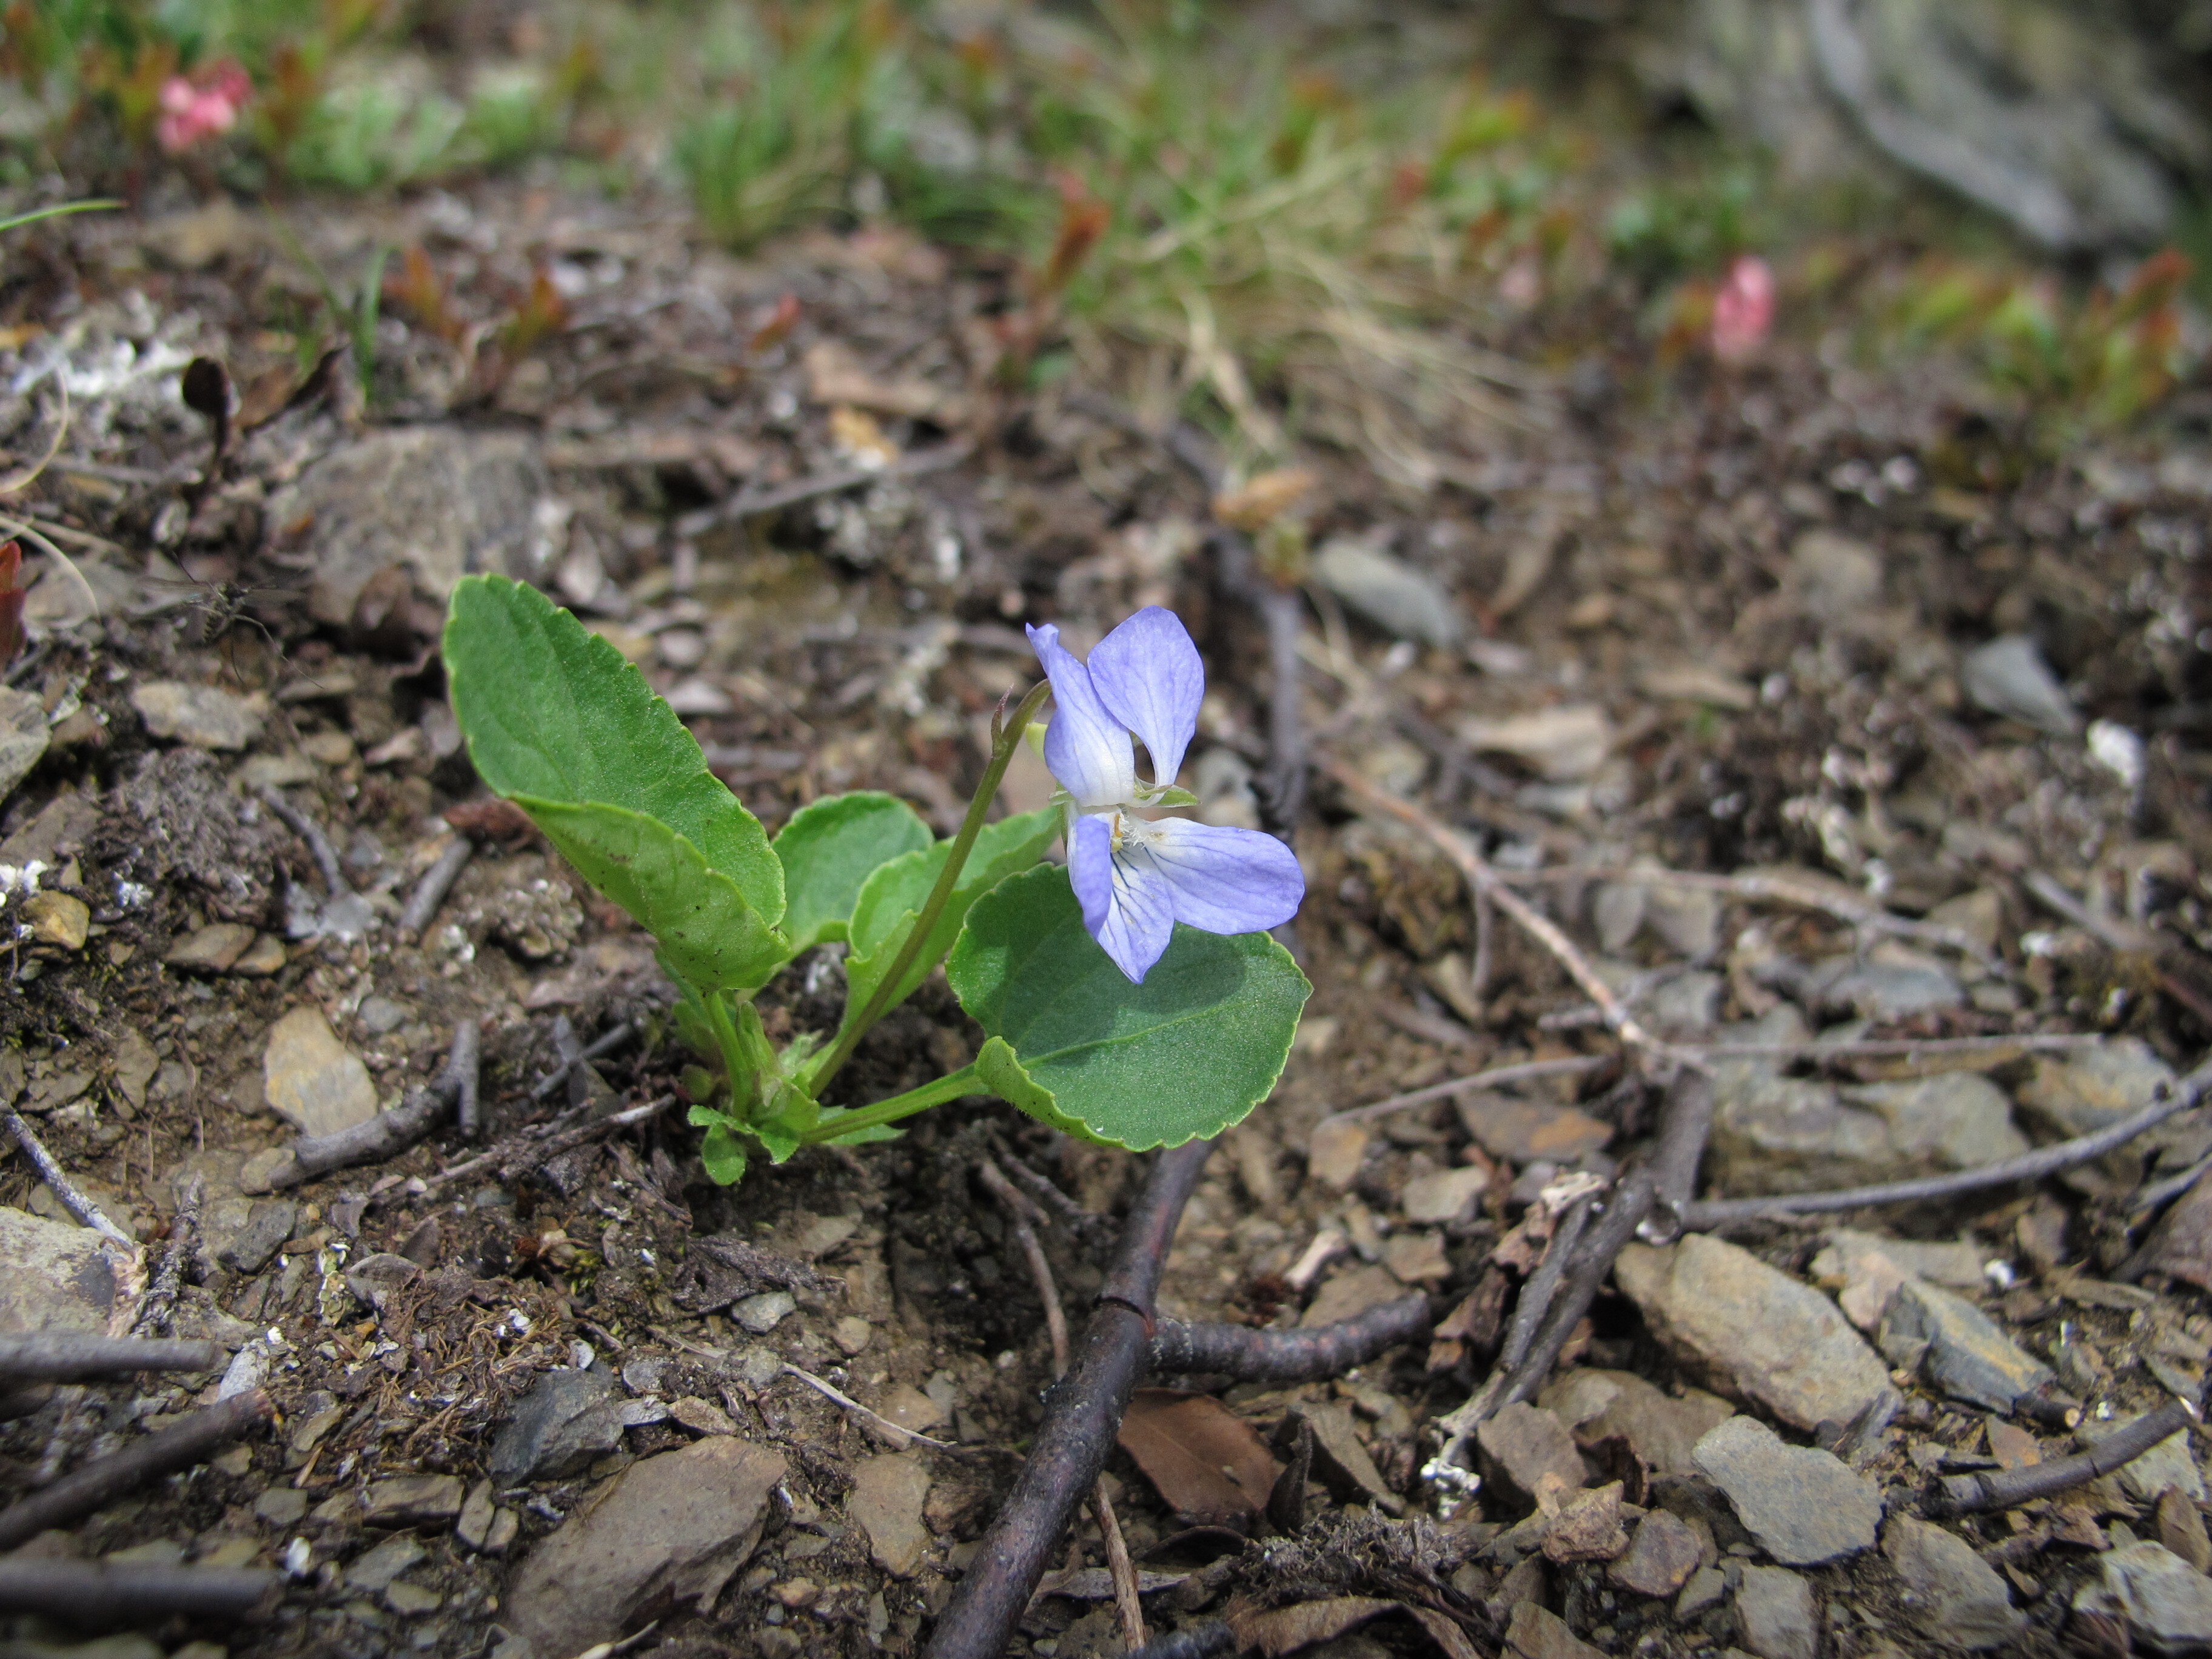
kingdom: Plantae
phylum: Tracheophyta
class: Magnoliopsida
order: Malpighiales
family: Violaceae
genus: Viola
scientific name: Viola rupestris
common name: Teesdale violet
